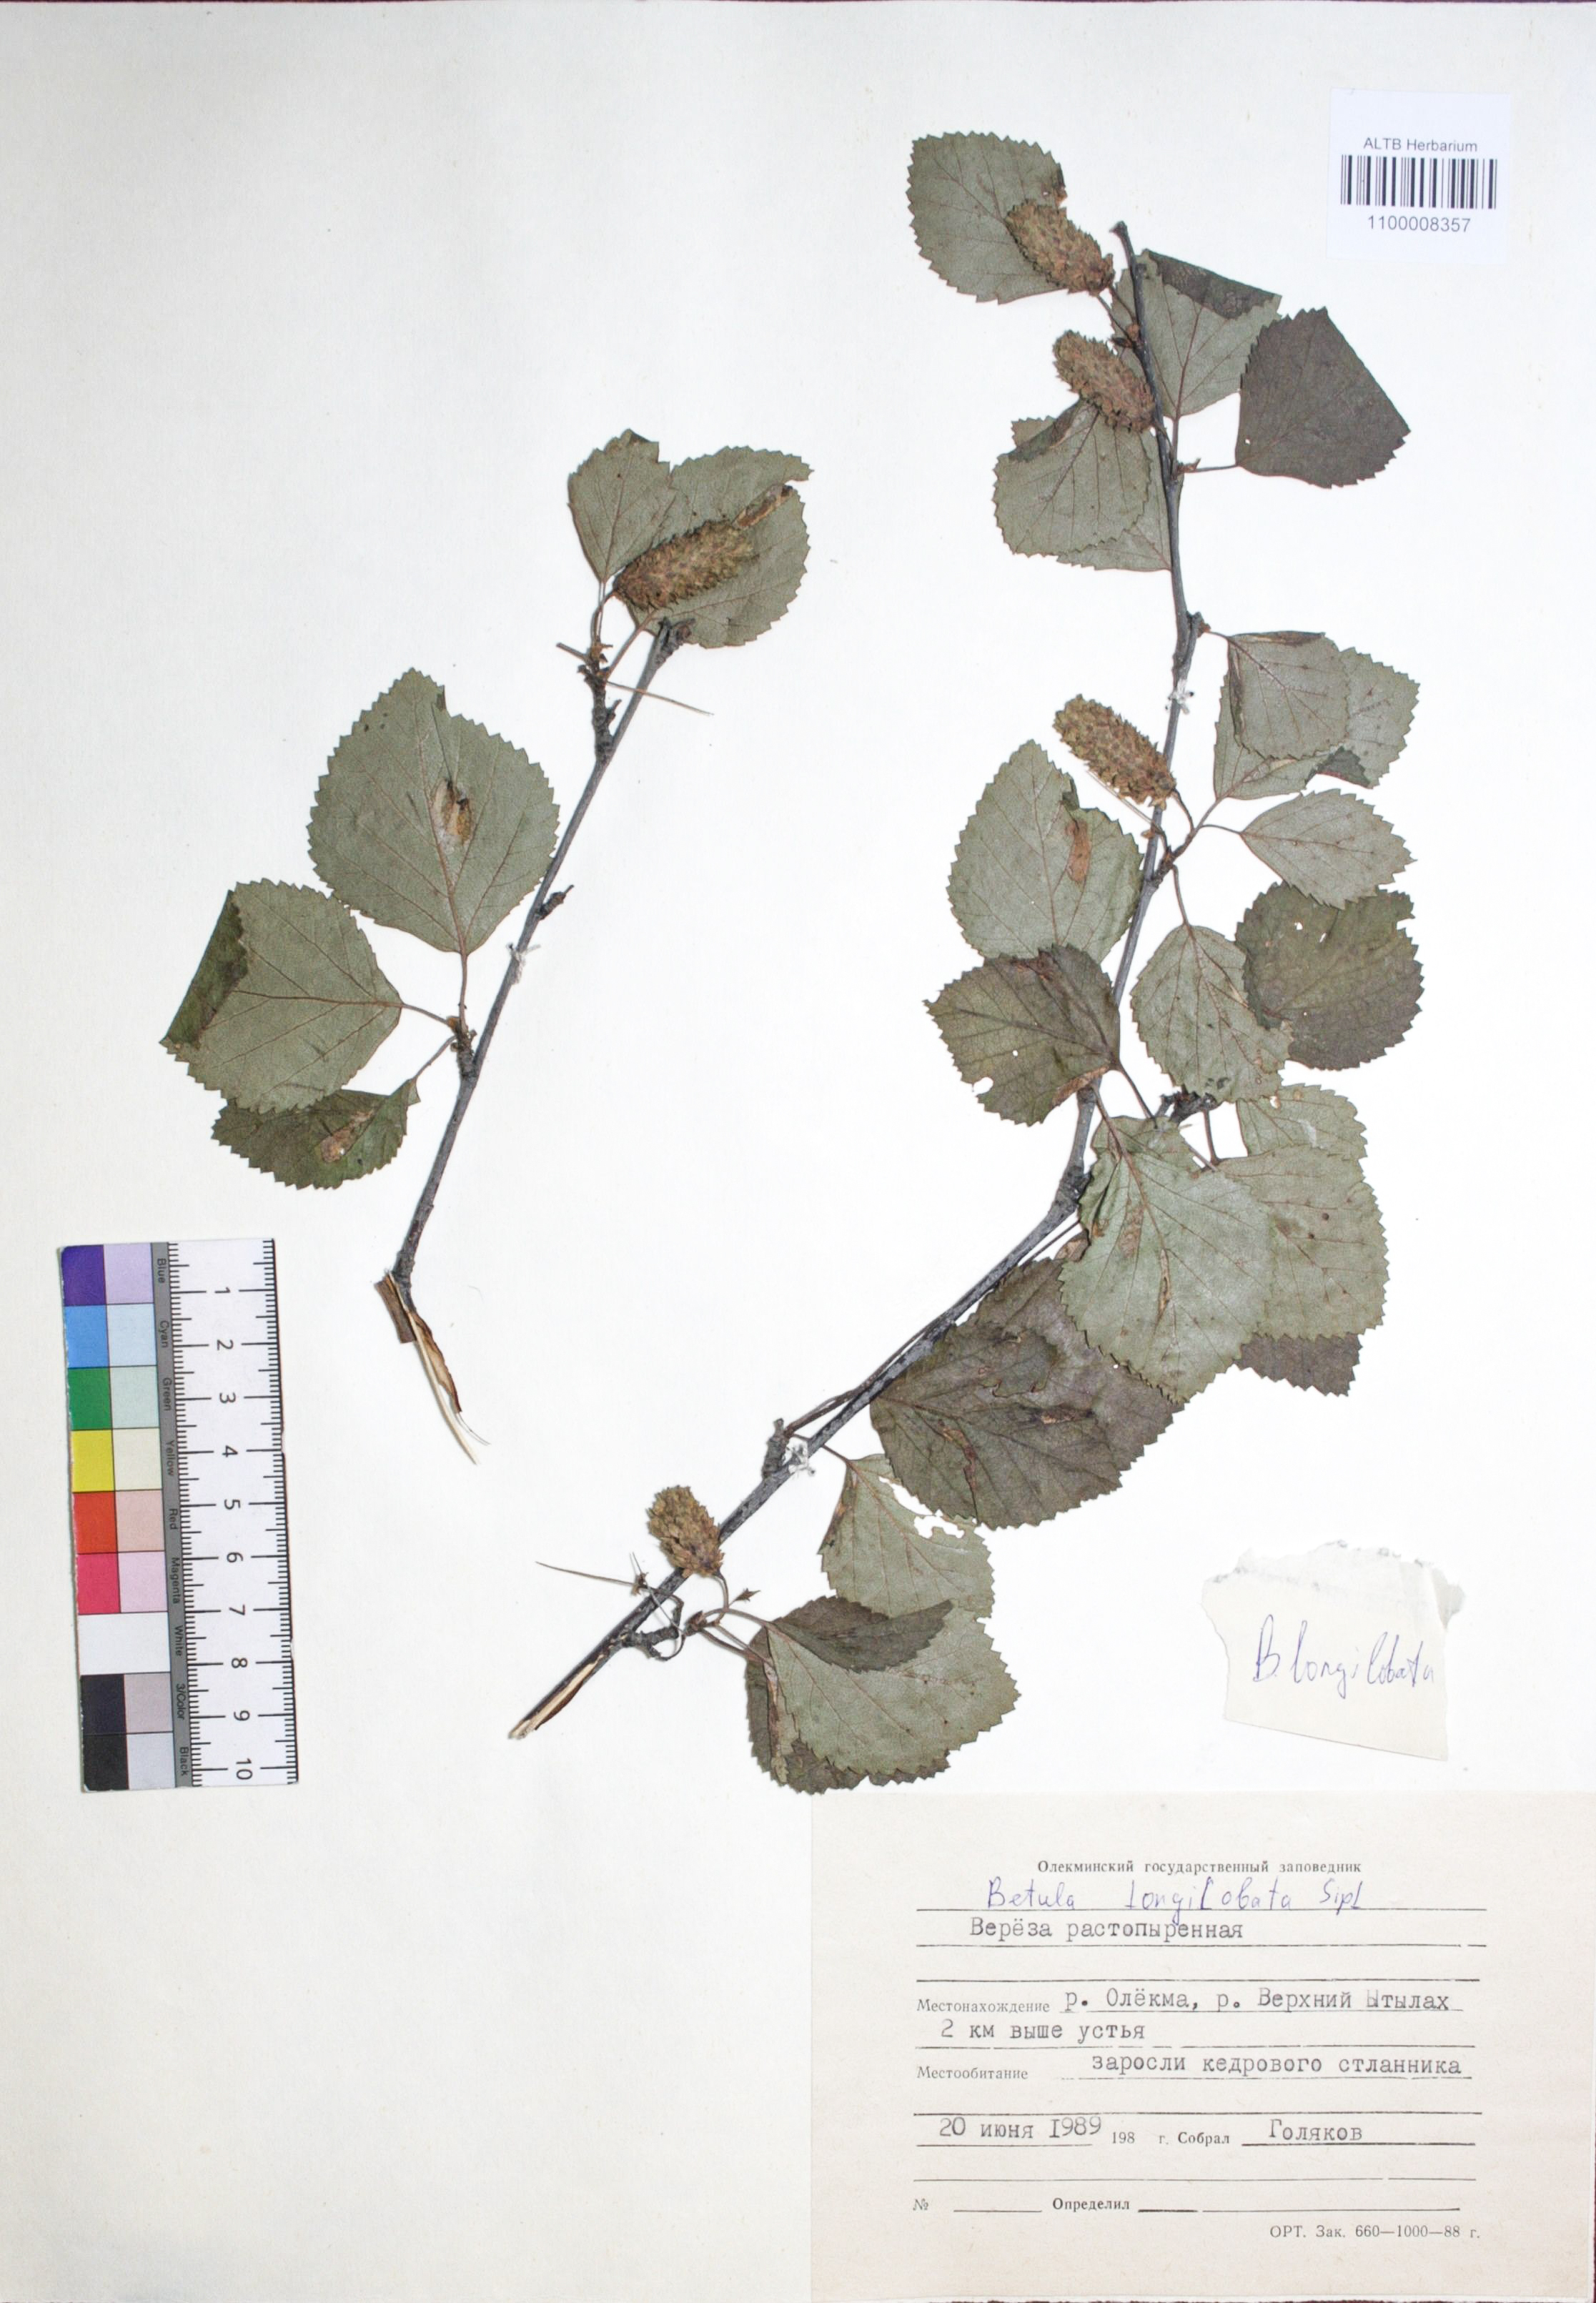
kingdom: Plantae
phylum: Tracheophyta
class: Magnoliopsida
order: Fagales
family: Betulaceae
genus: Betula
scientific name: Betula ermanii
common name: Erman's birch
